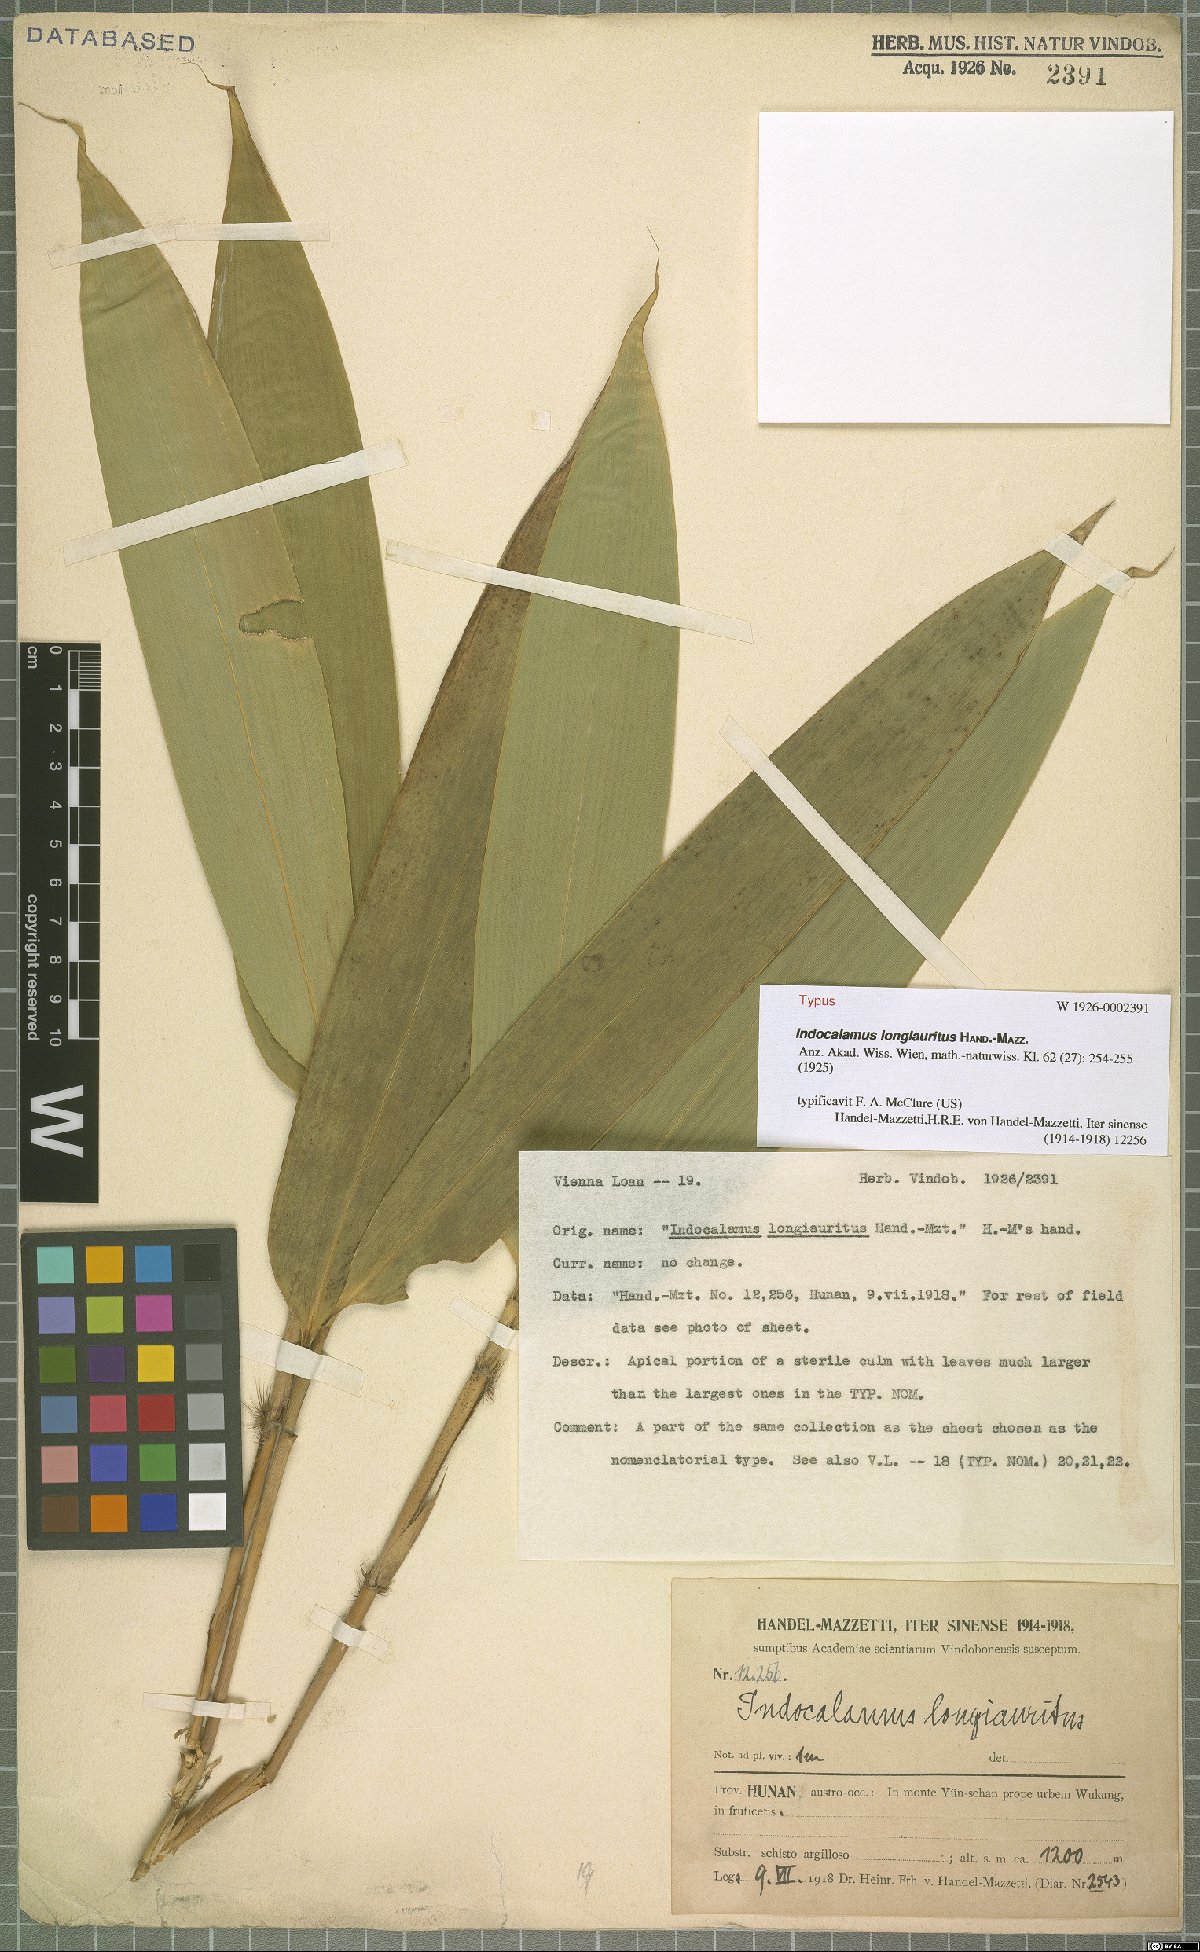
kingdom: Plantae
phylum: Tracheophyta
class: Liliopsida
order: Poales
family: Poaceae
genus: Indocalamus
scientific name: Indocalamus longiauritus
